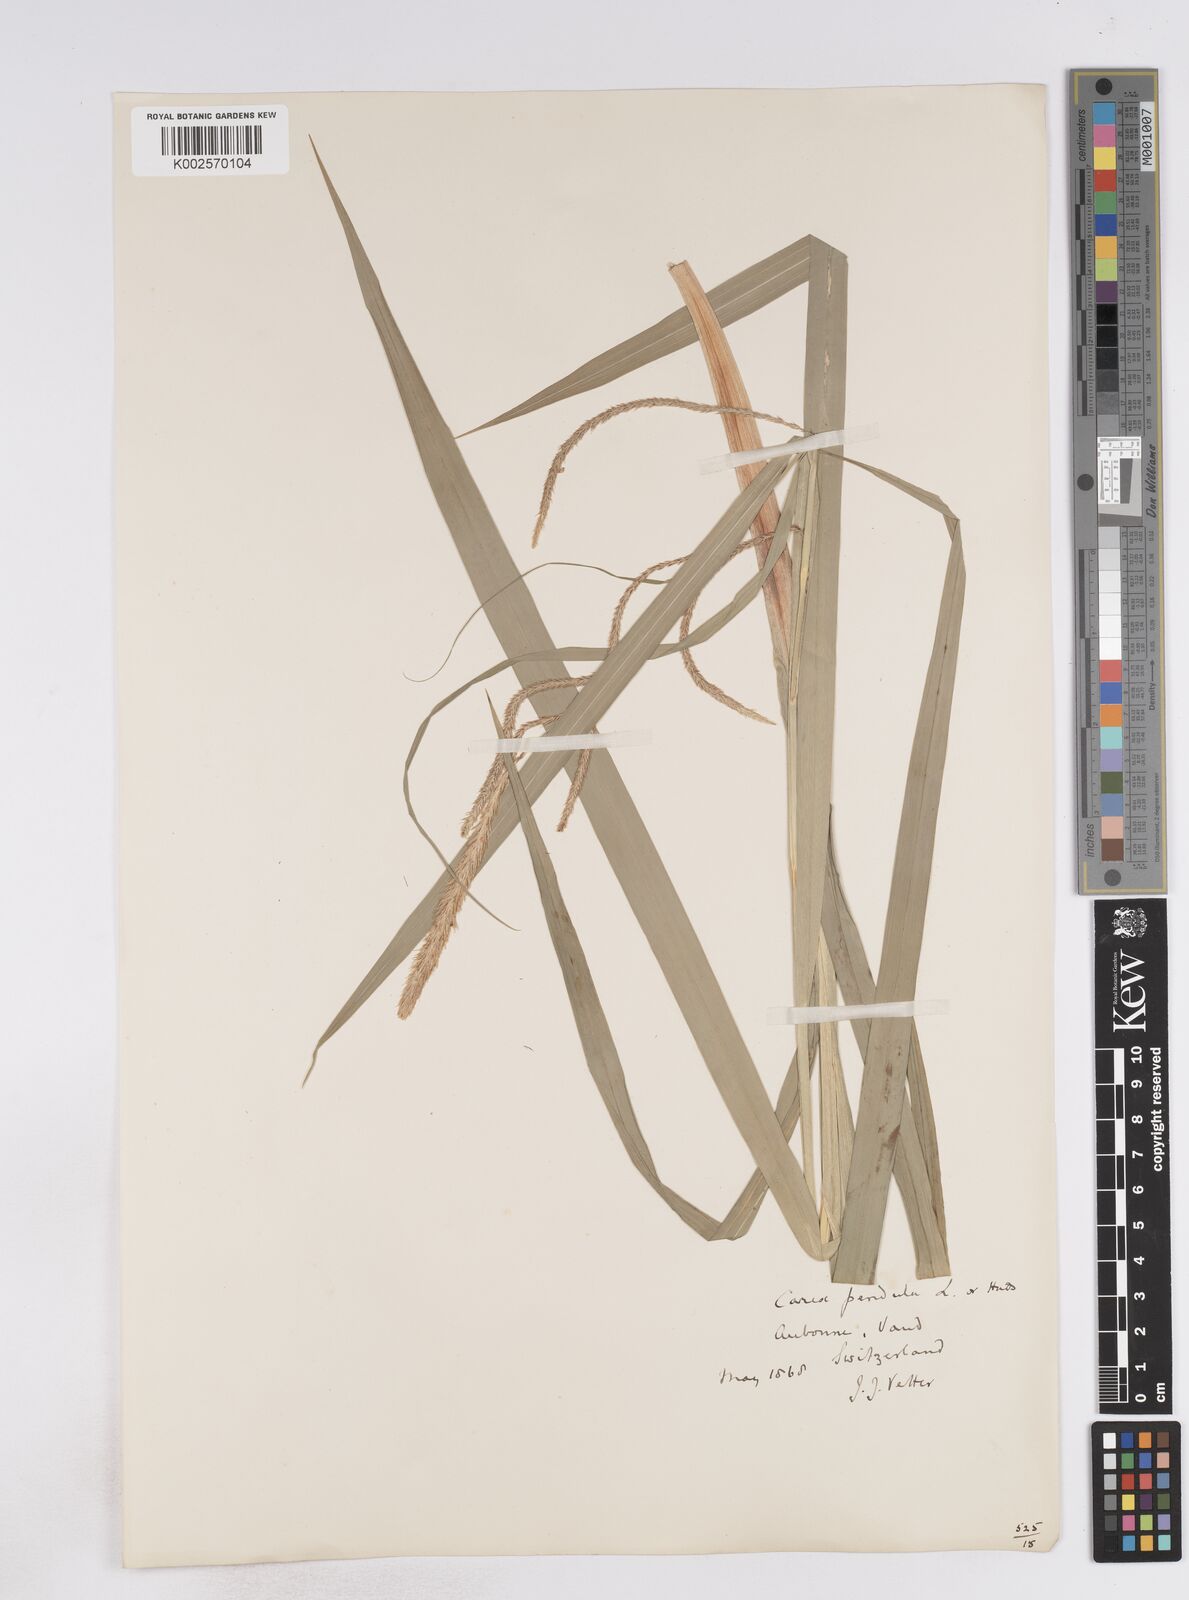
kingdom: Plantae
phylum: Tracheophyta
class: Liliopsida
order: Poales
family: Cyperaceae
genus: Carex
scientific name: Carex pendula
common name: Pendulous sedge
